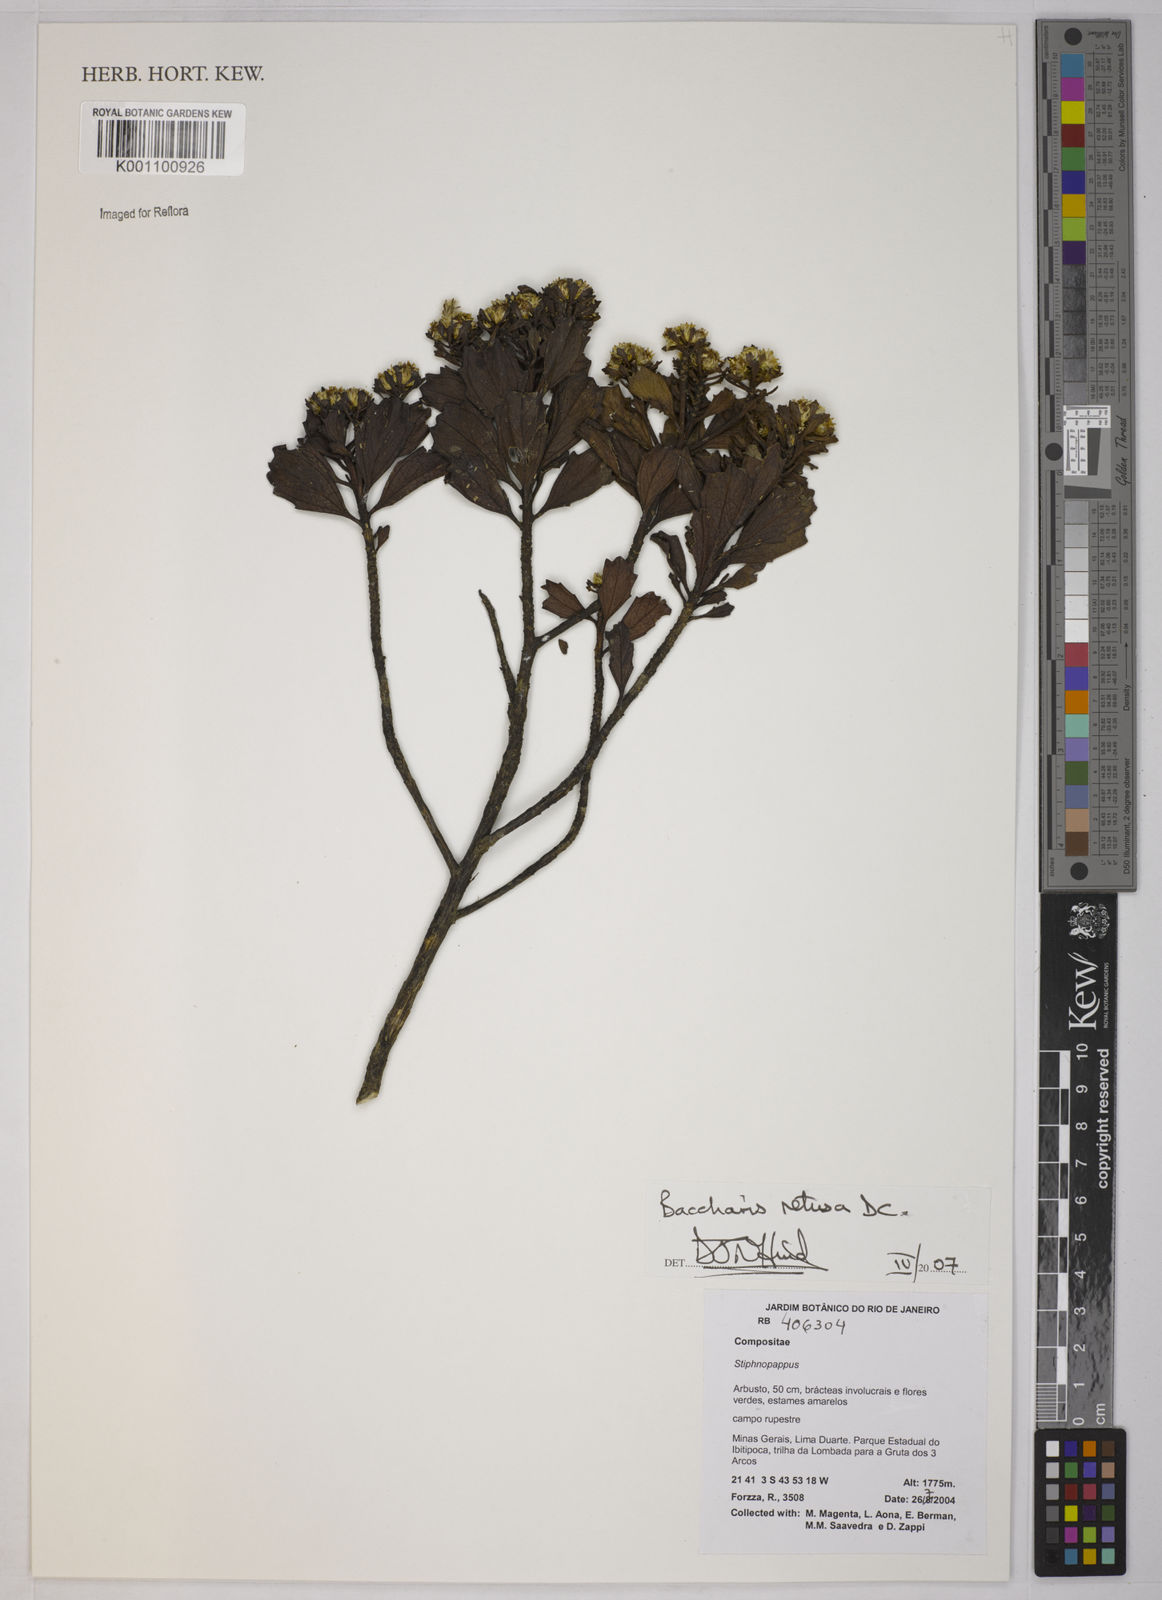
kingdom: Plantae
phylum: Tracheophyta
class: Magnoliopsida
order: Asterales
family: Asteraceae
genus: Baccharis
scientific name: Baccharis retusa
